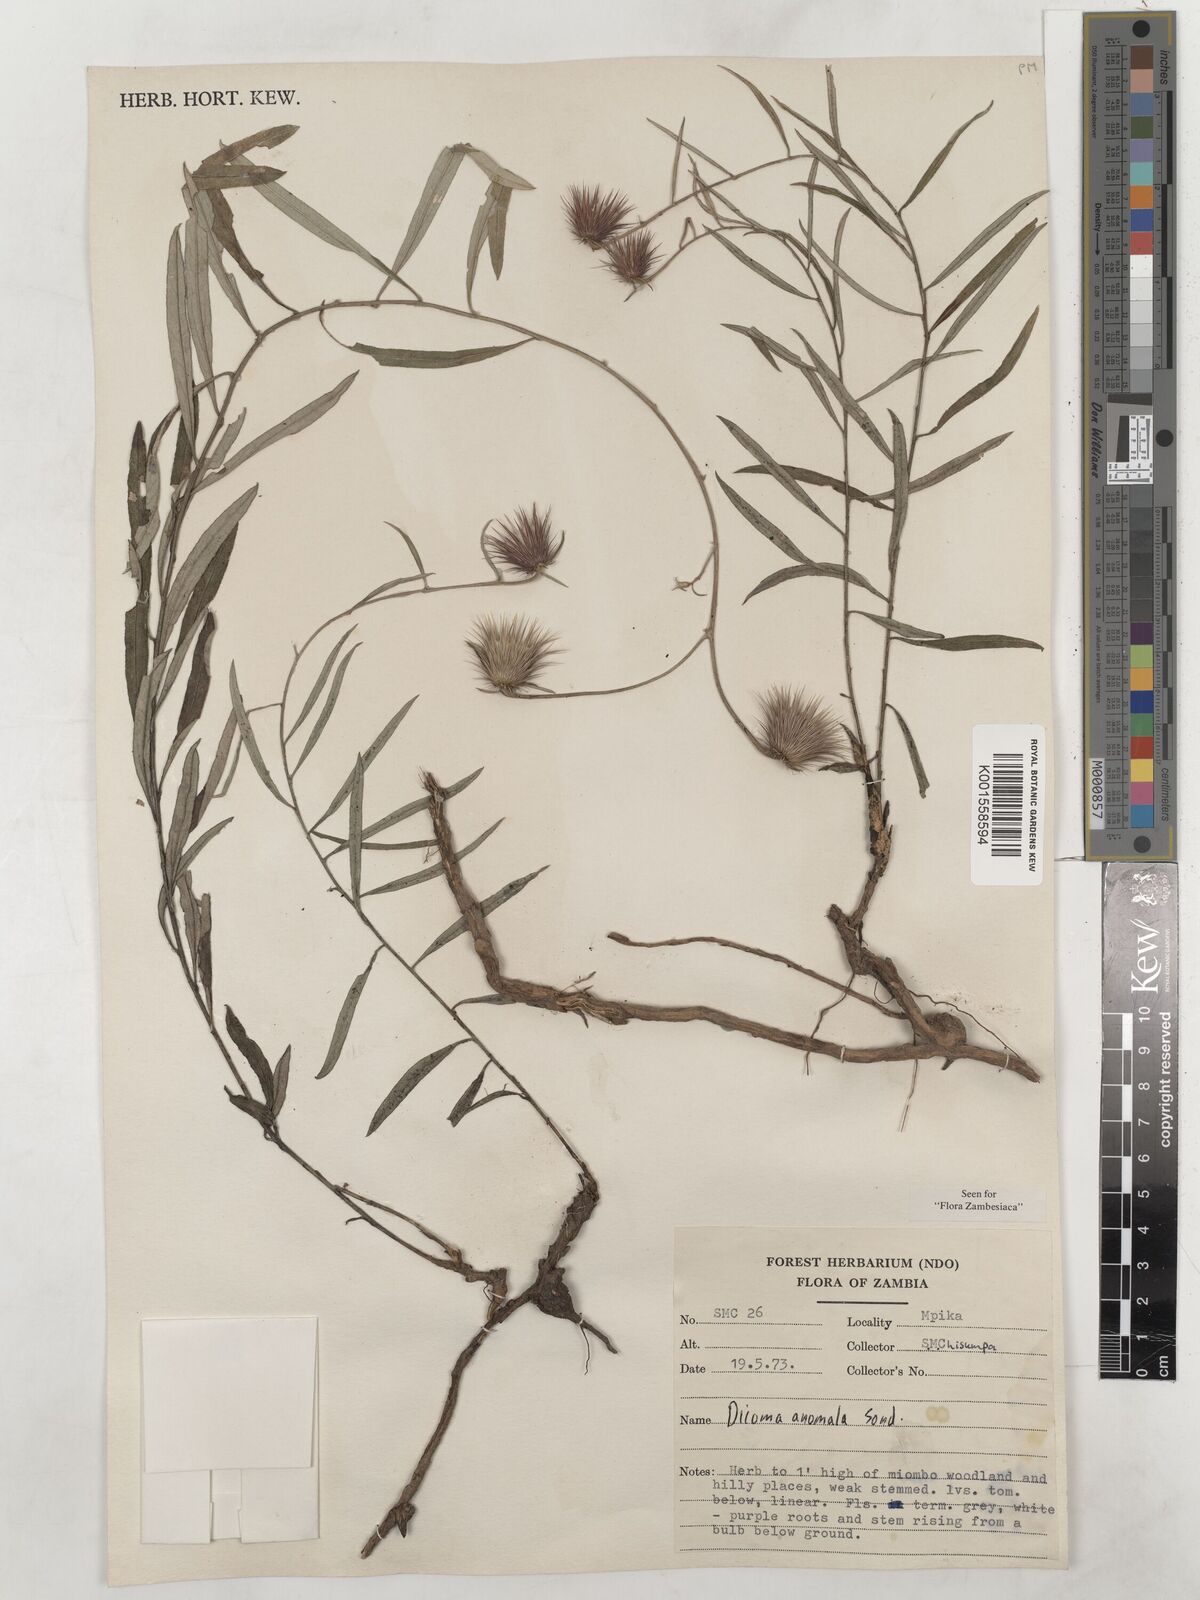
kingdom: Plantae
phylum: Tracheophyta
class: Magnoliopsida
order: Asterales
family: Asteraceae
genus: Dicoma
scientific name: Dicoma anomala
